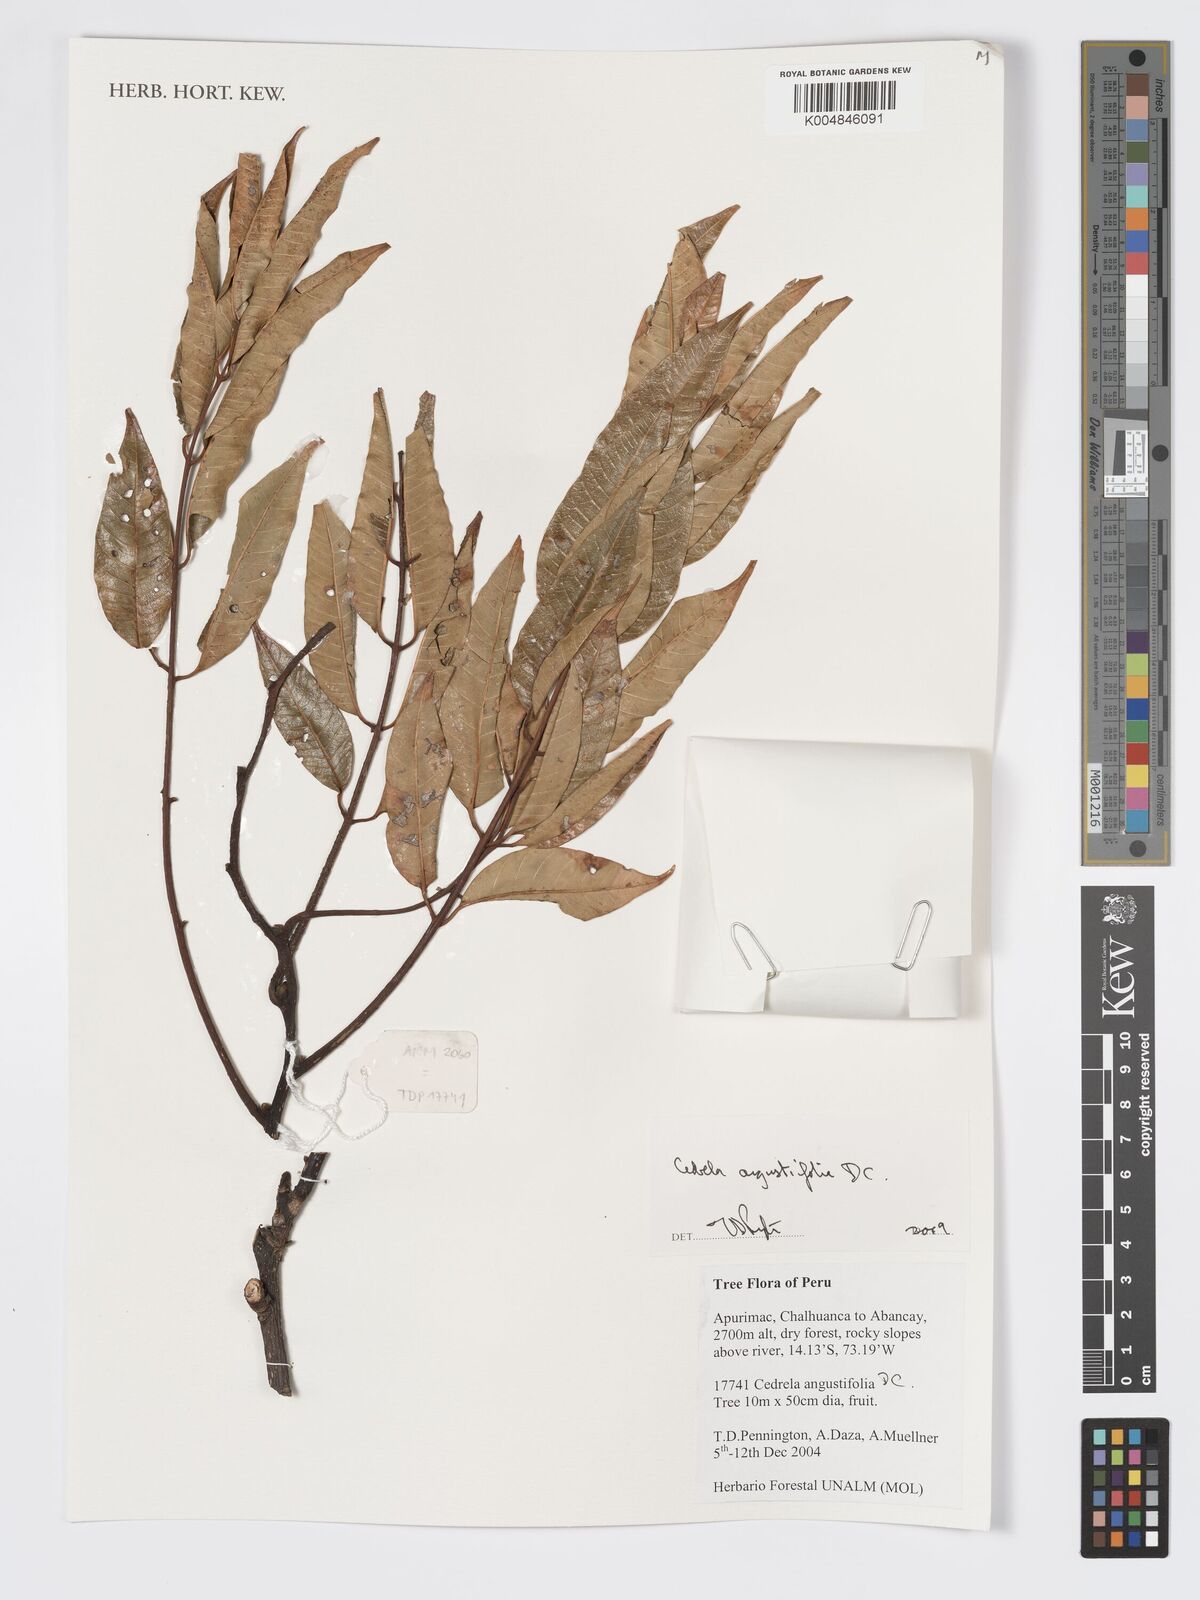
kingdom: Plantae
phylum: Tracheophyta
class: Magnoliopsida
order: Sapindales
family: Meliaceae
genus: Cedrela
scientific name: Cedrela odorata
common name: Red cedar
